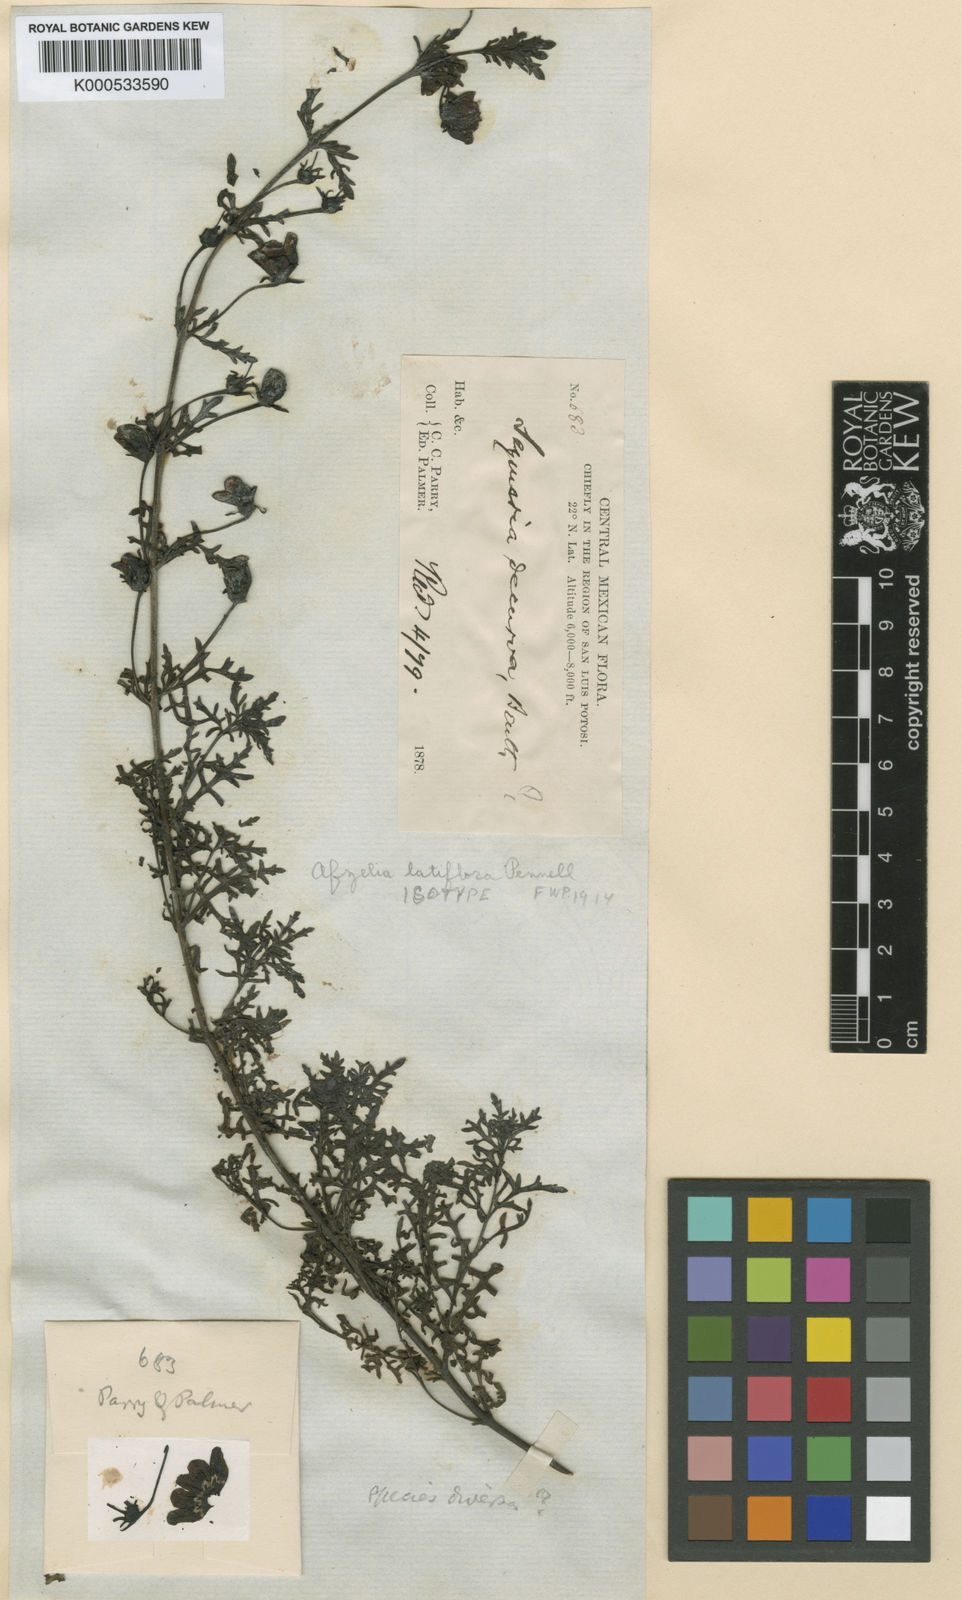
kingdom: Plantae
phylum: Tracheophyta
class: Magnoliopsida
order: Lamiales
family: Orobanchaceae
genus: Seymeria
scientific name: Seymeria decurva
